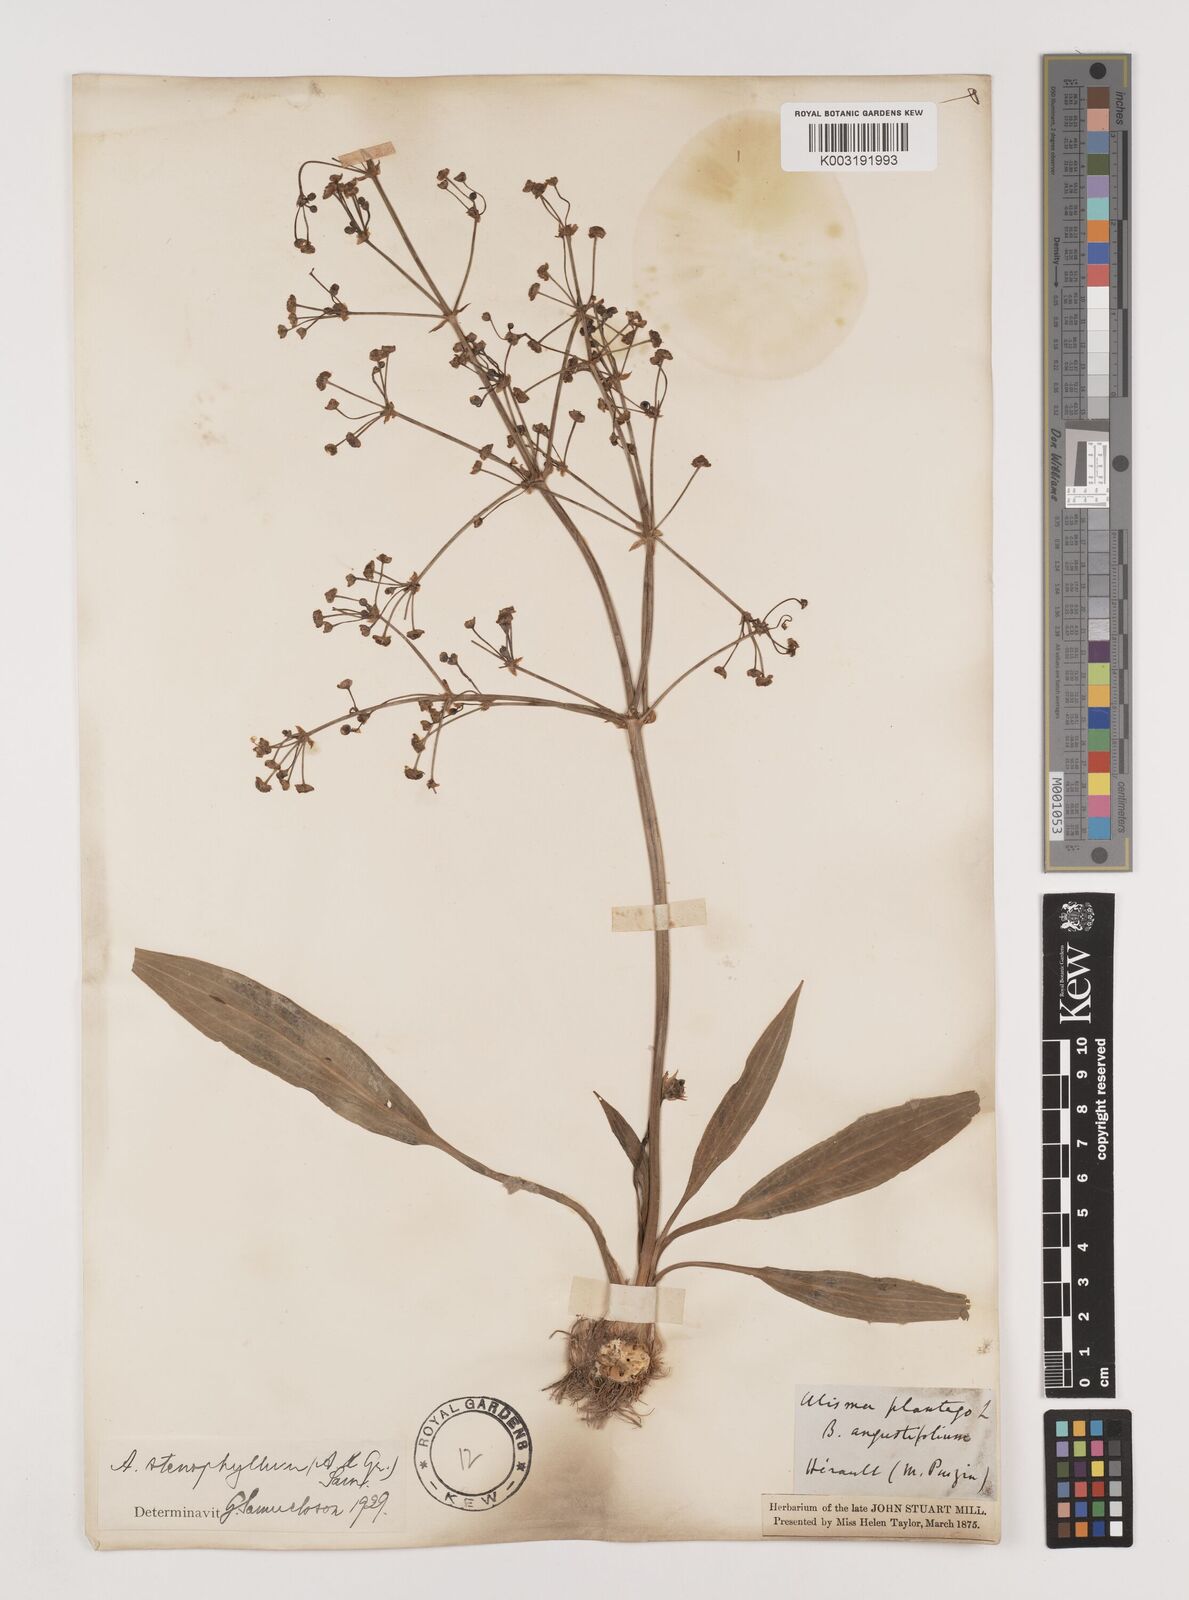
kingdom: Plantae
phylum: Tracheophyta
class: Liliopsida
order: Alismatales
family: Alismataceae
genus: Alisma
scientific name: Alisma lanceolatum
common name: Narrow-leaved water-plantain
